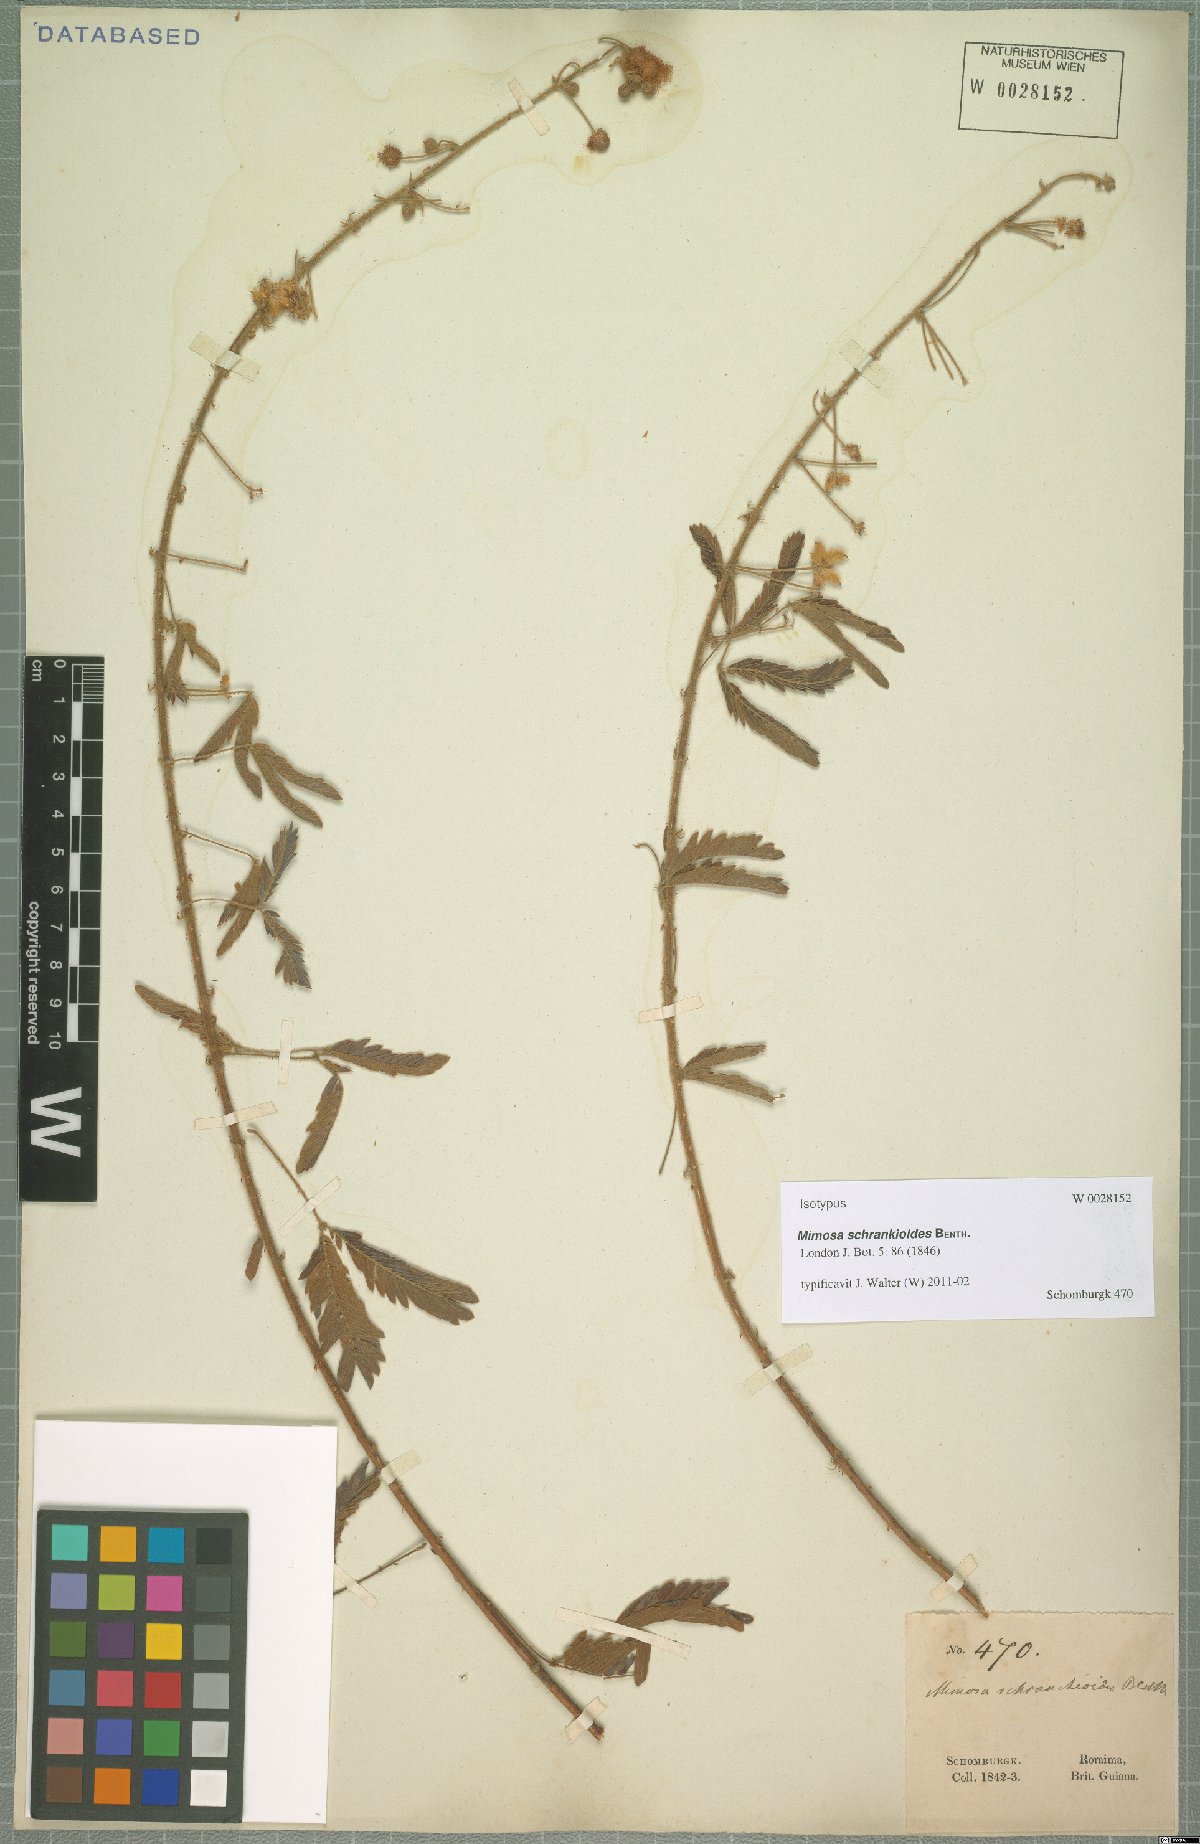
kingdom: Plantae
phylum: Tracheophyta
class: Magnoliopsida
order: Fabales
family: Fabaceae
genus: Mimosa
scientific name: Mimosa schrankioides
